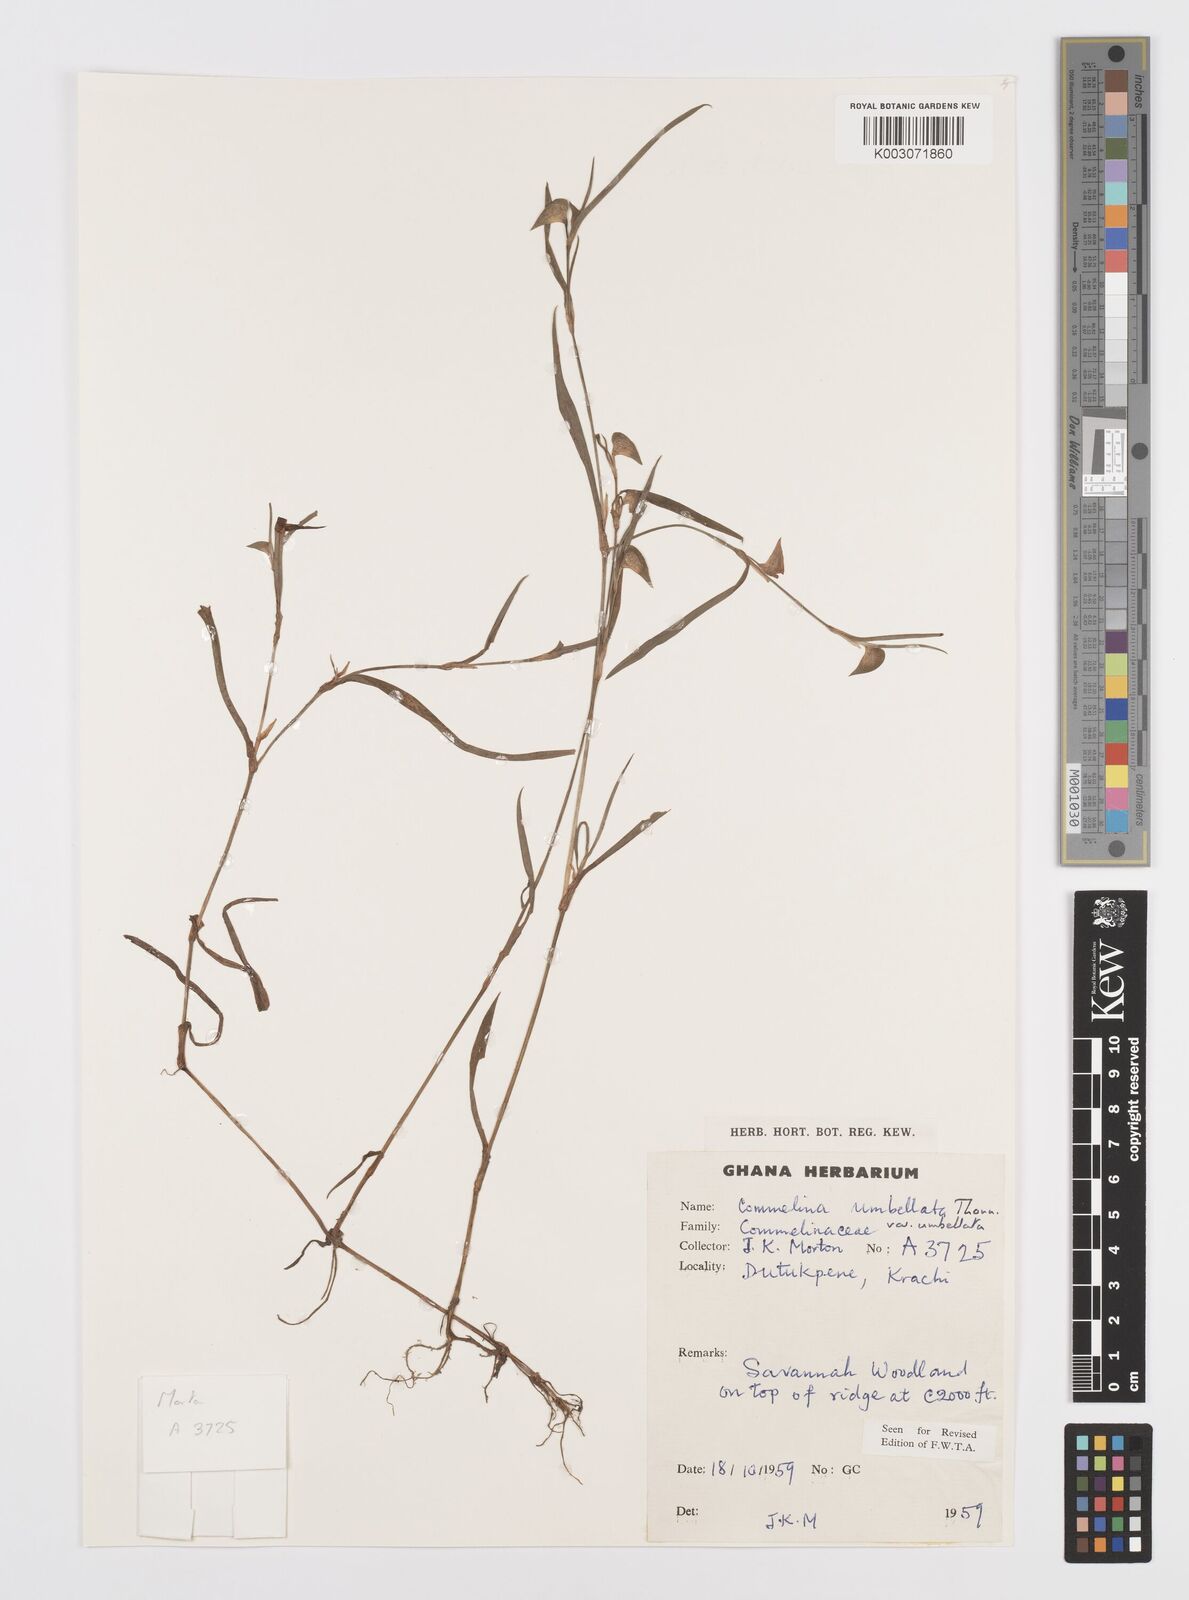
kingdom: Plantae
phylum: Tracheophyta
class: Liliopsida
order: Commelinales
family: Commelinaceae
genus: Commelina
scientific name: Commelina
